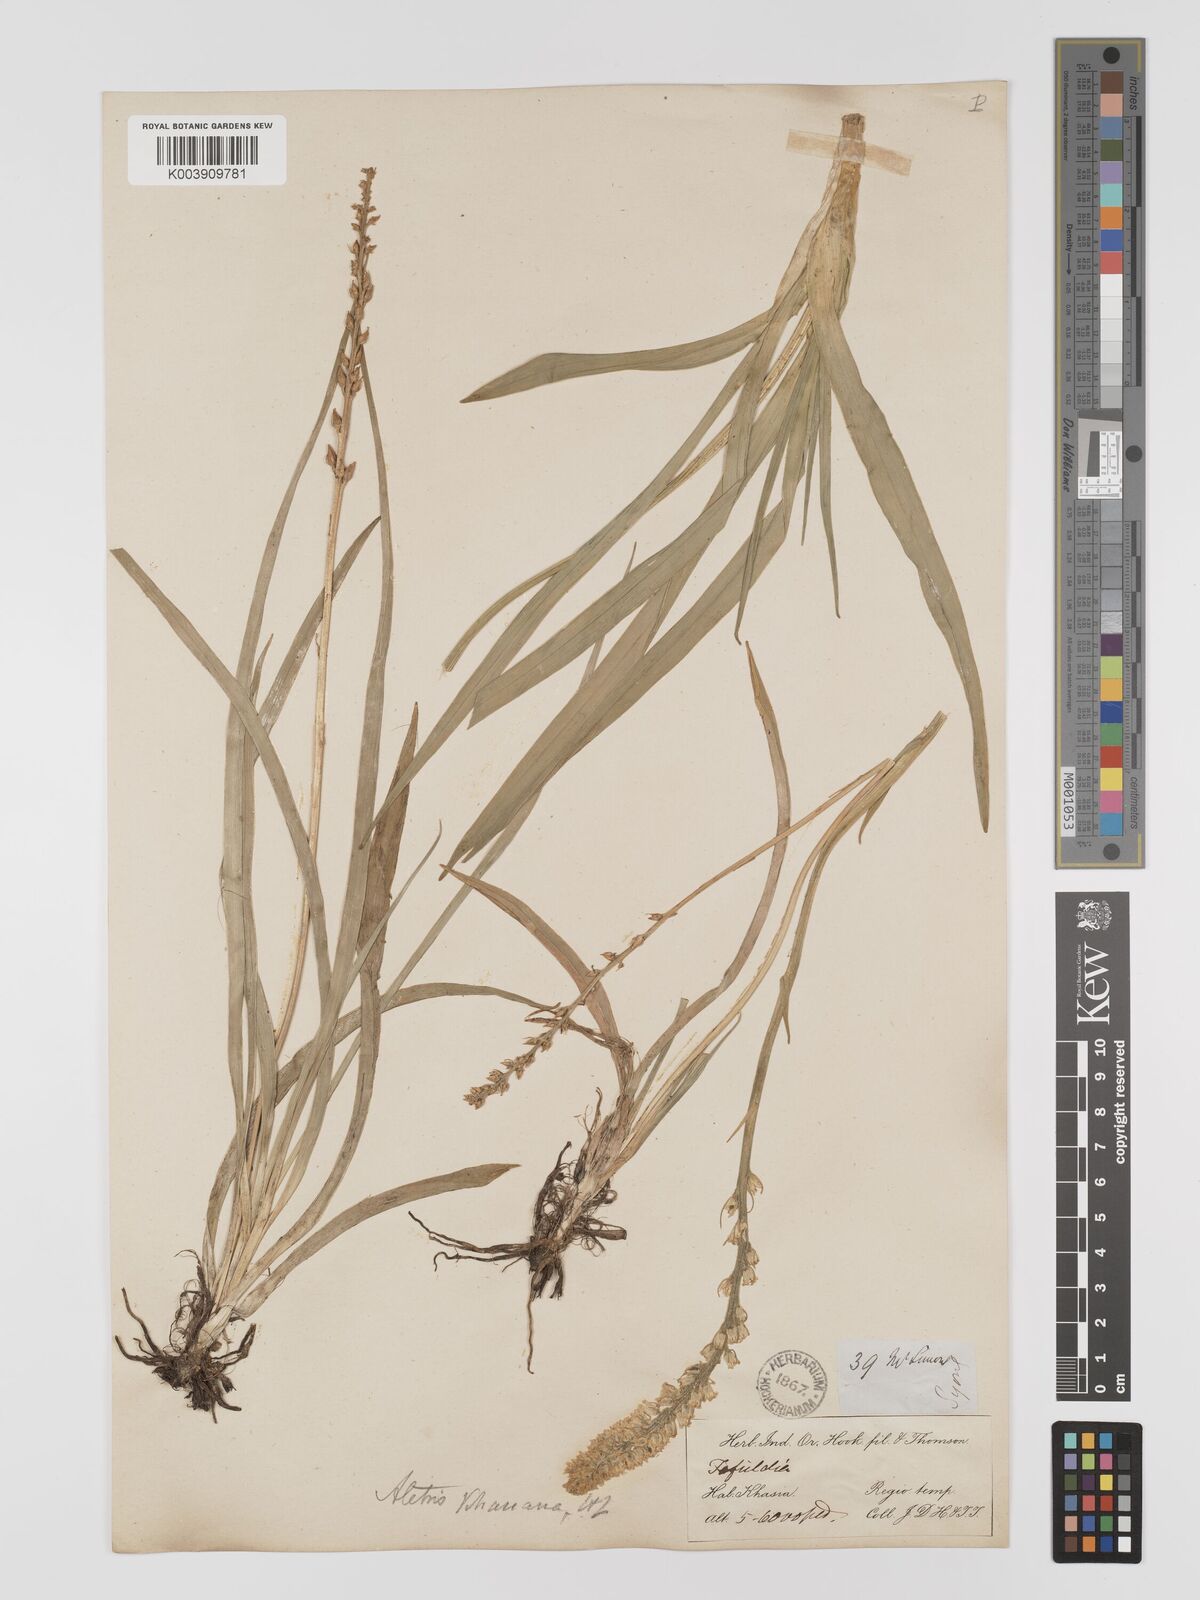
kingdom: Plantae
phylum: Tracheophyta
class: Liliopsida
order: Dioscoreales
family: Nartheciaceae
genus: Aletris
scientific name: Aletris pauciflora
